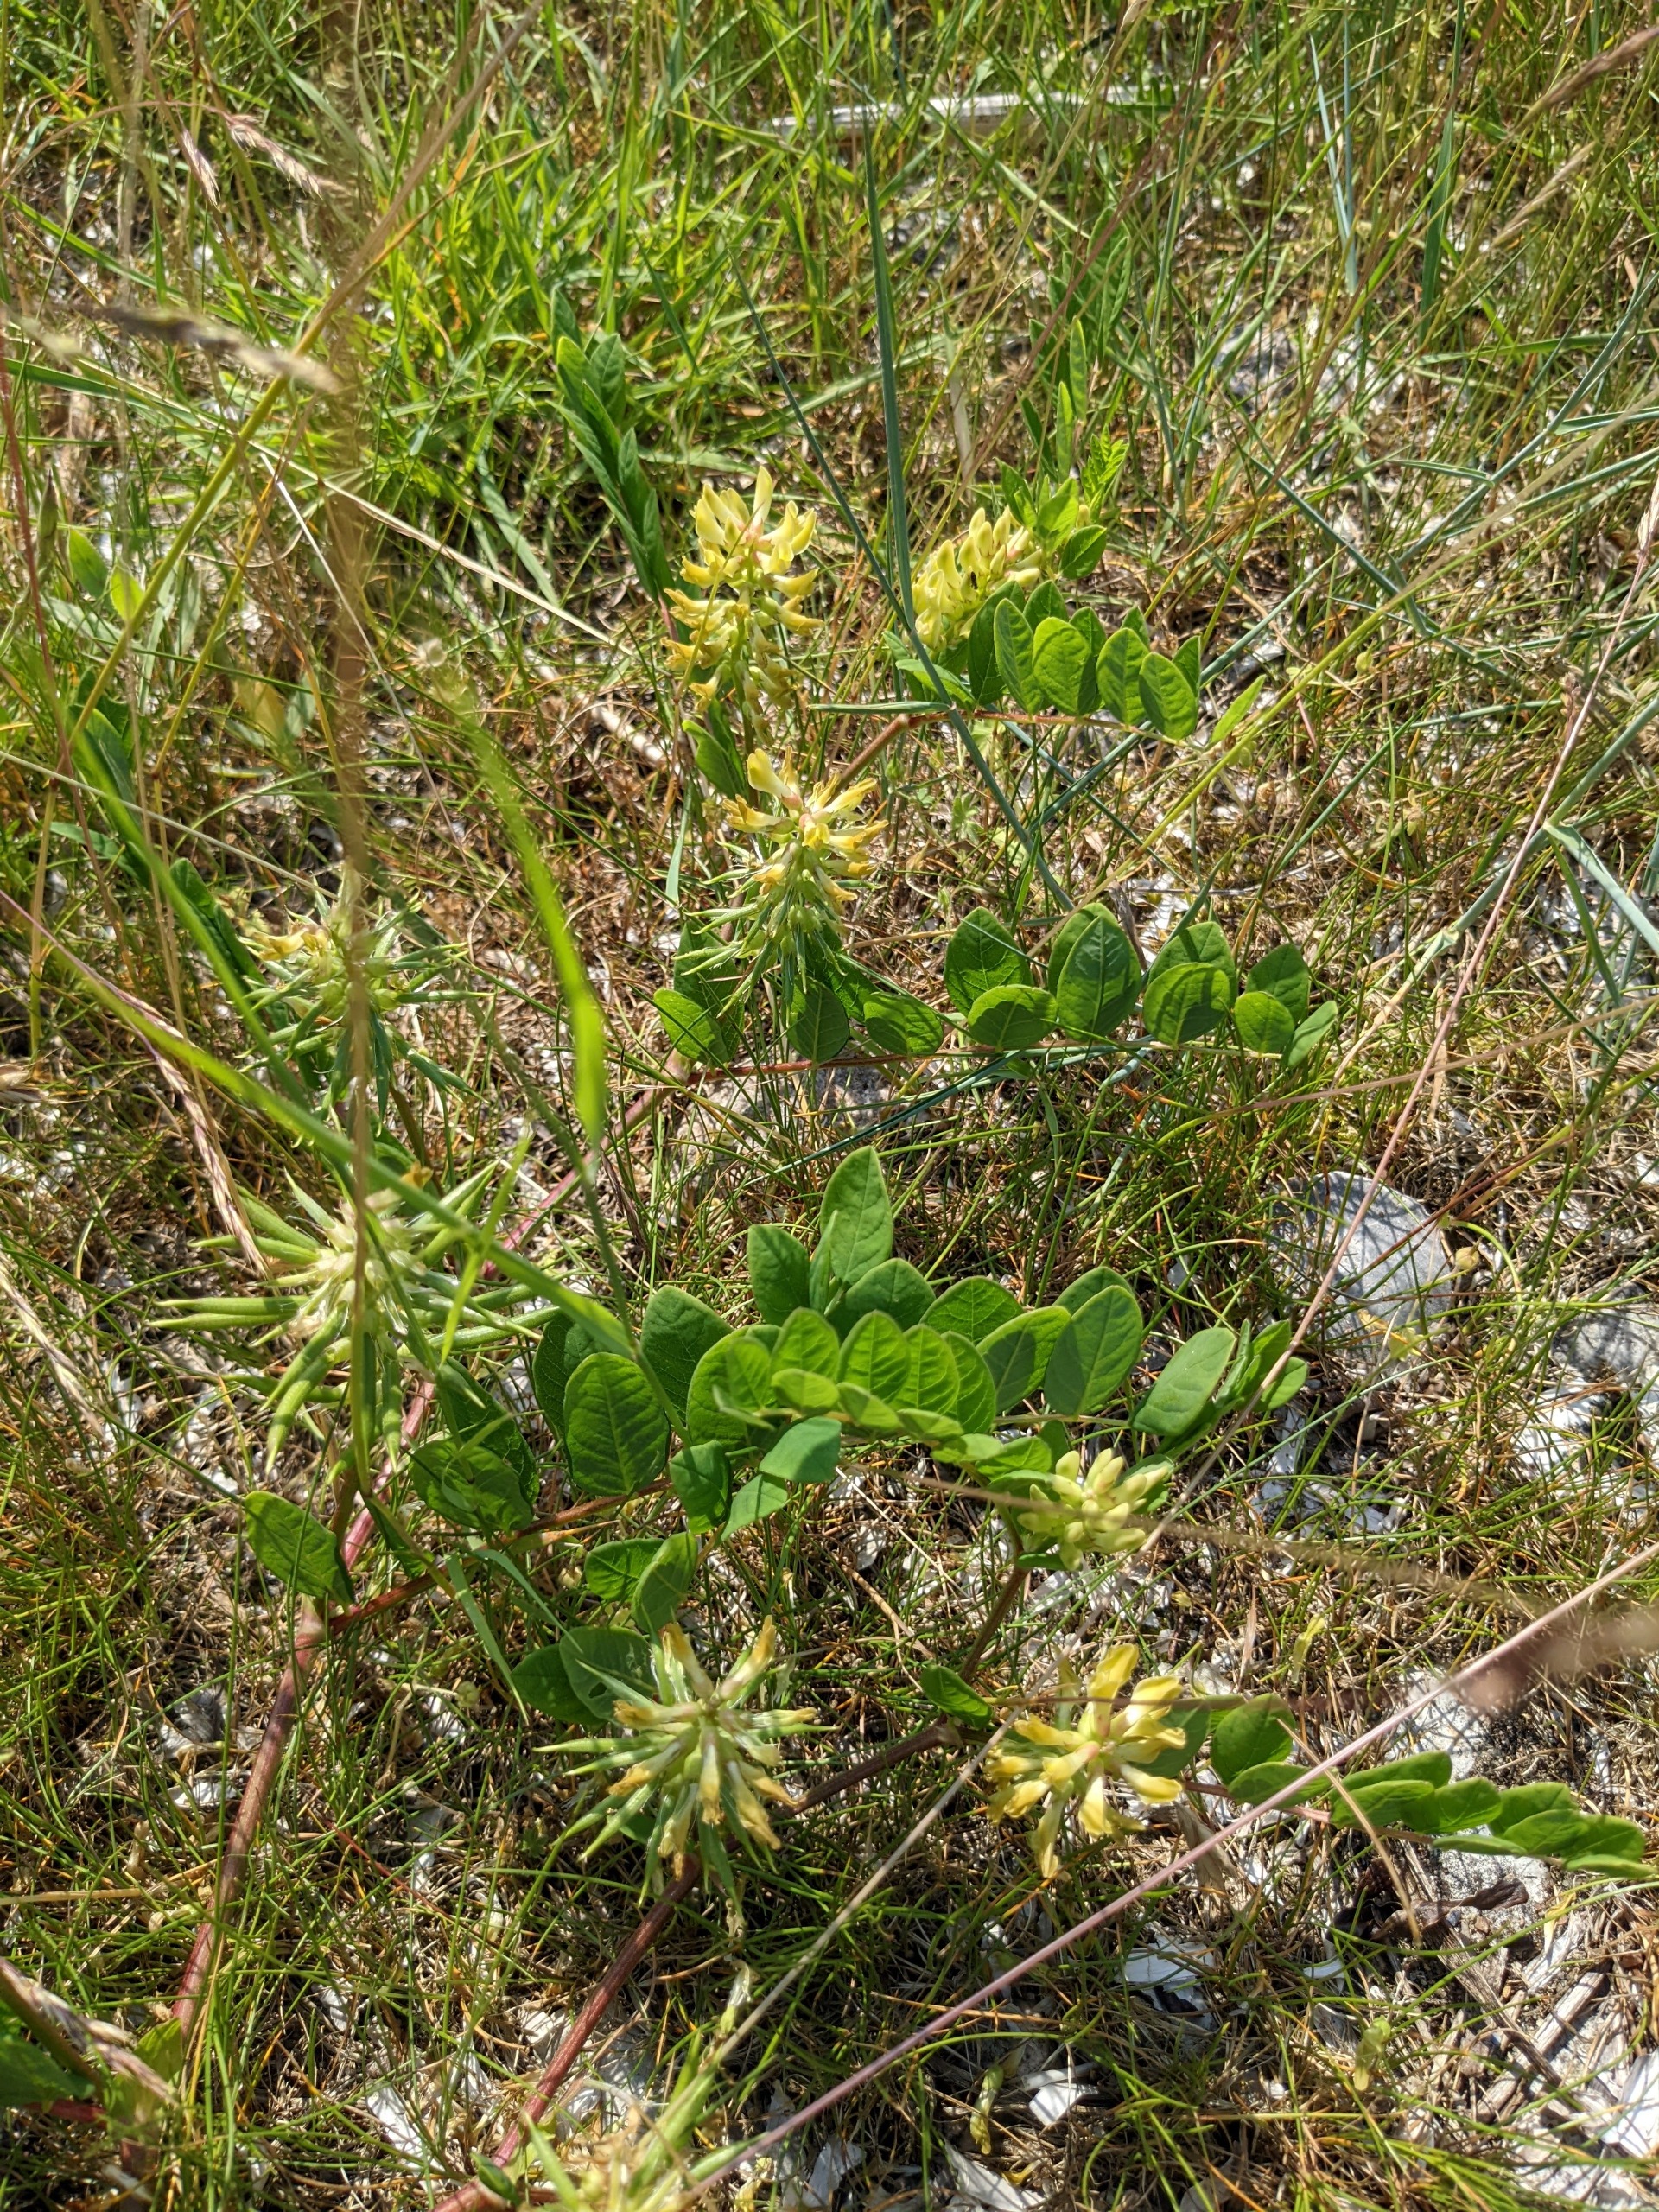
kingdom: Plantae
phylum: Tracheophyta
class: Magnoliopsida
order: Fabales
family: Fabaceae
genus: Astragalus
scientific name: Astragalus glycyphyllos
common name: Sød astragel
